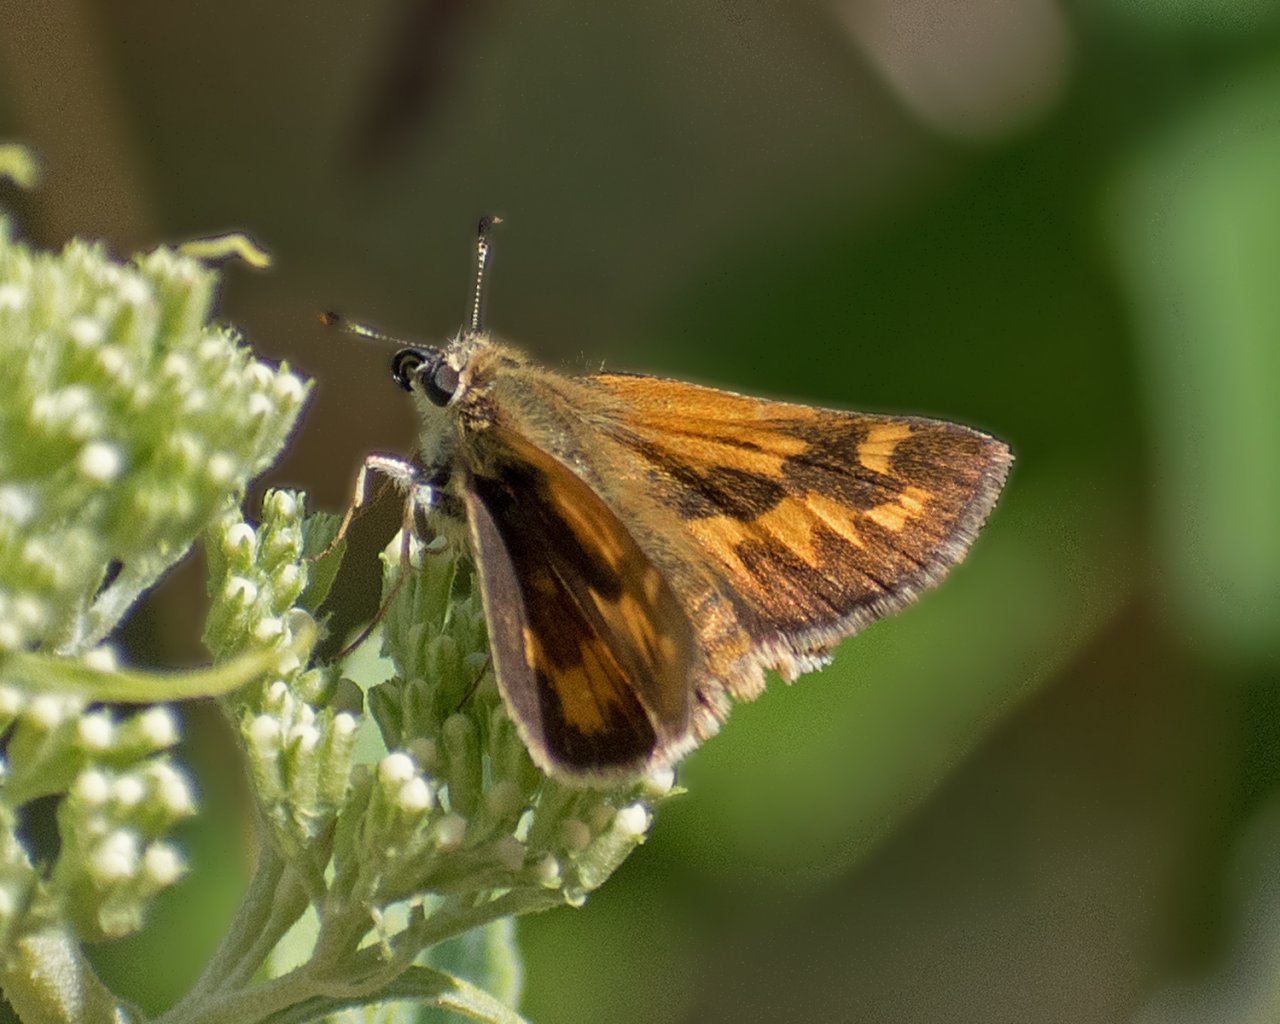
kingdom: Animalia
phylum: Arthropoda
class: Insecta
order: Lepidoptera
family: Hesperiidae
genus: Ochlodes
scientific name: Ochlodes sylvanoides
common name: Woodland Skipper
